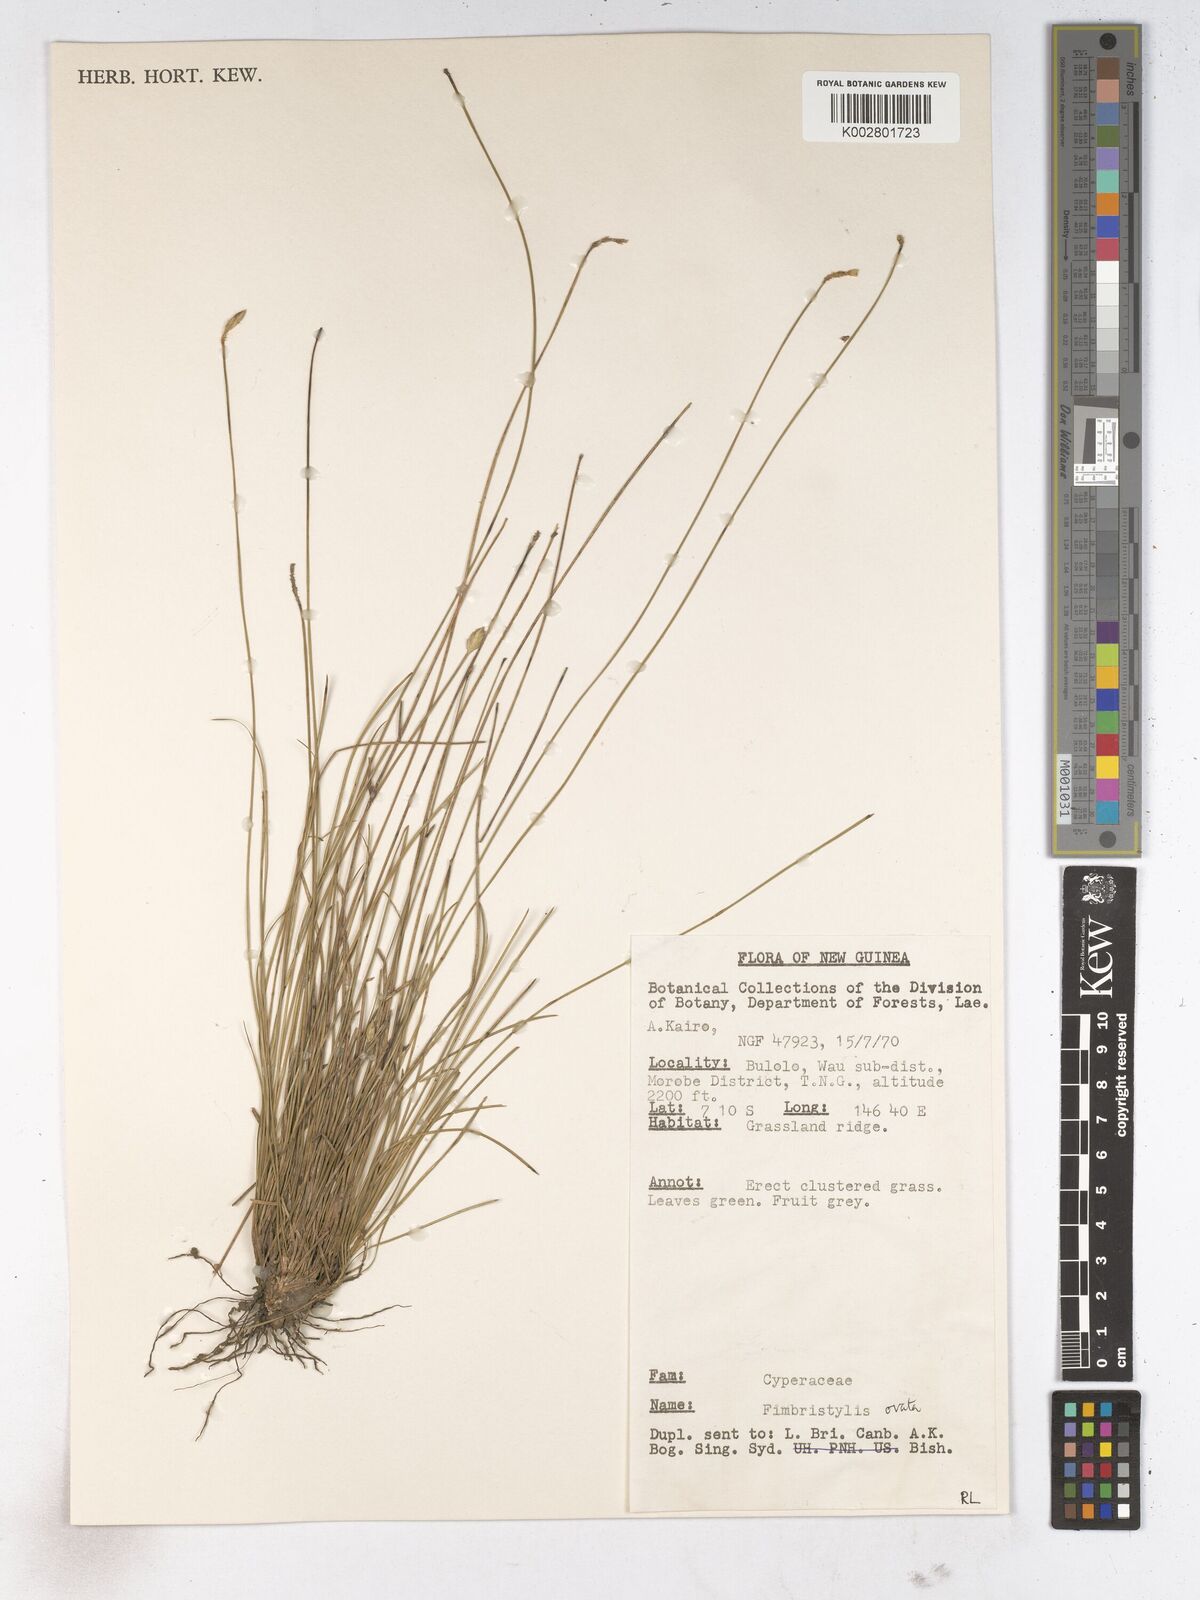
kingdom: Plantae
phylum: Tracheophyta
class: Liliopsida
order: Poales
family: Cyperaceae
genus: Abildgaardia
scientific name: Abildgaardia ovata
